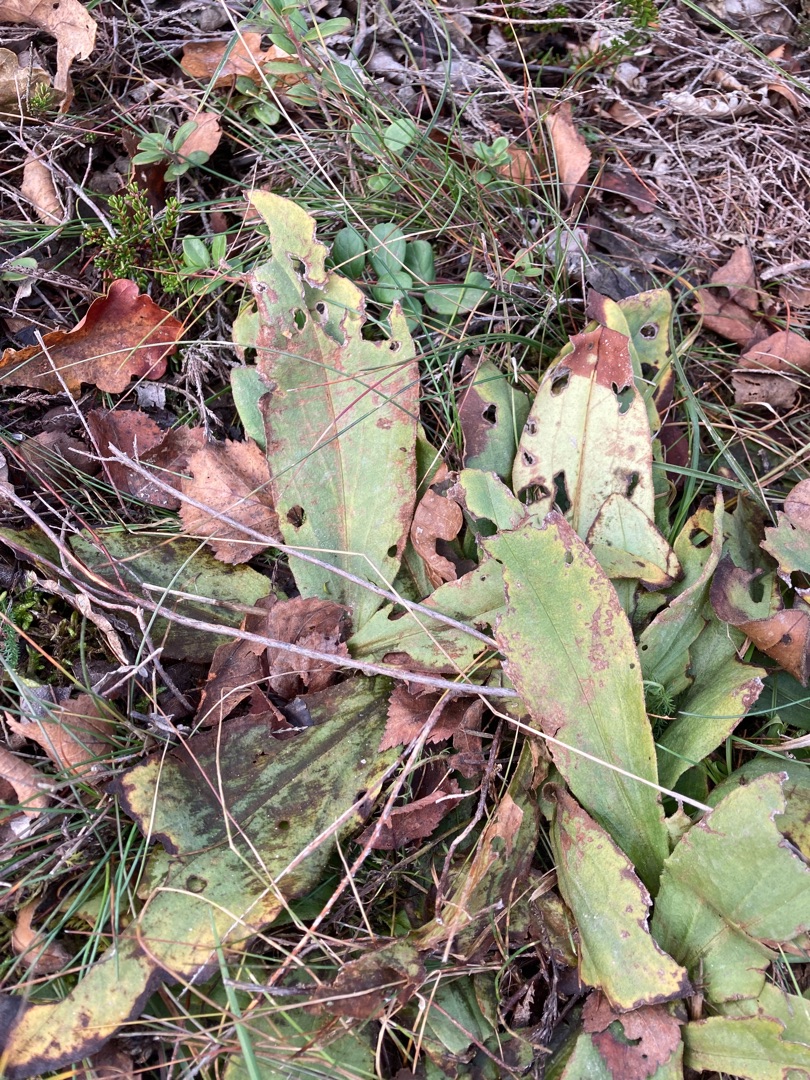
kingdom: Plantae
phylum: Tracheophyta
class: Magnoliopsida
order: Asterales
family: Asteraceae
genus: Arnica
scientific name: Arnica montana
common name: Guldblomme
